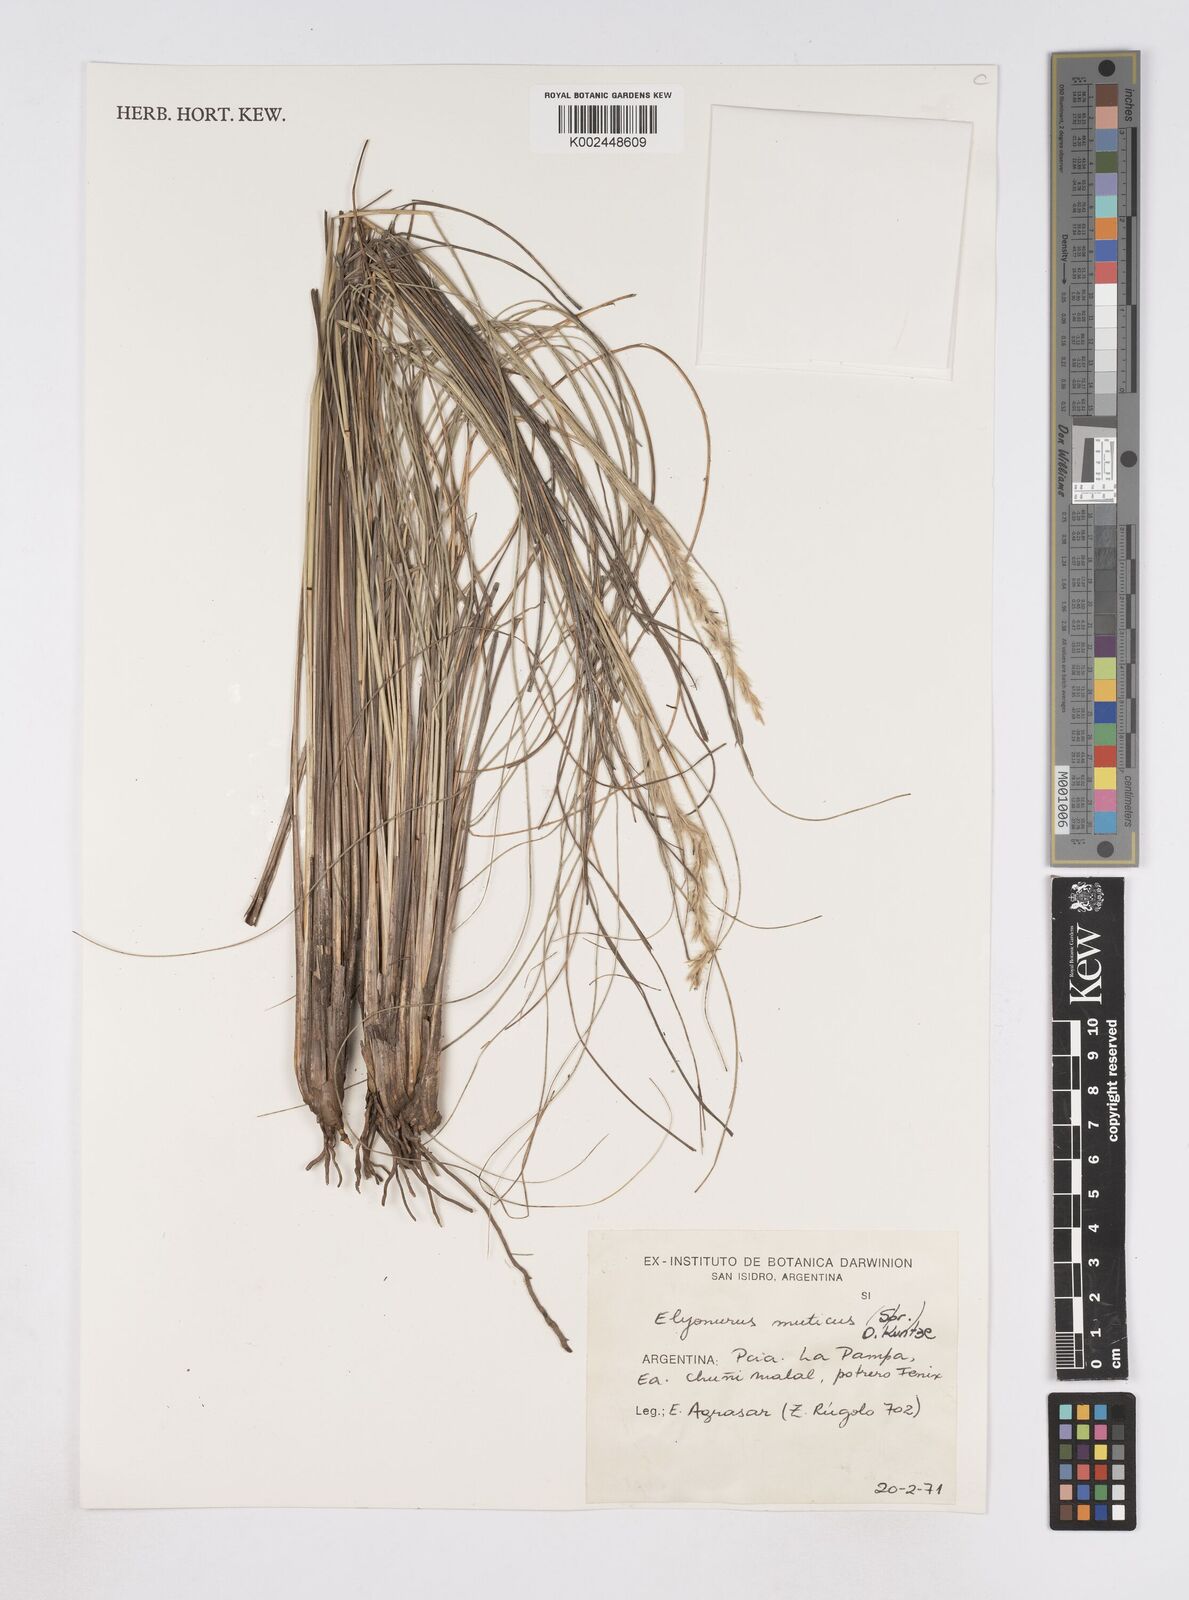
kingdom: Plantae
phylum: Tracheophyta
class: Liliopsida
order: Poales
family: Poaceae
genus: Elionurus
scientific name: Elionurus muticus
